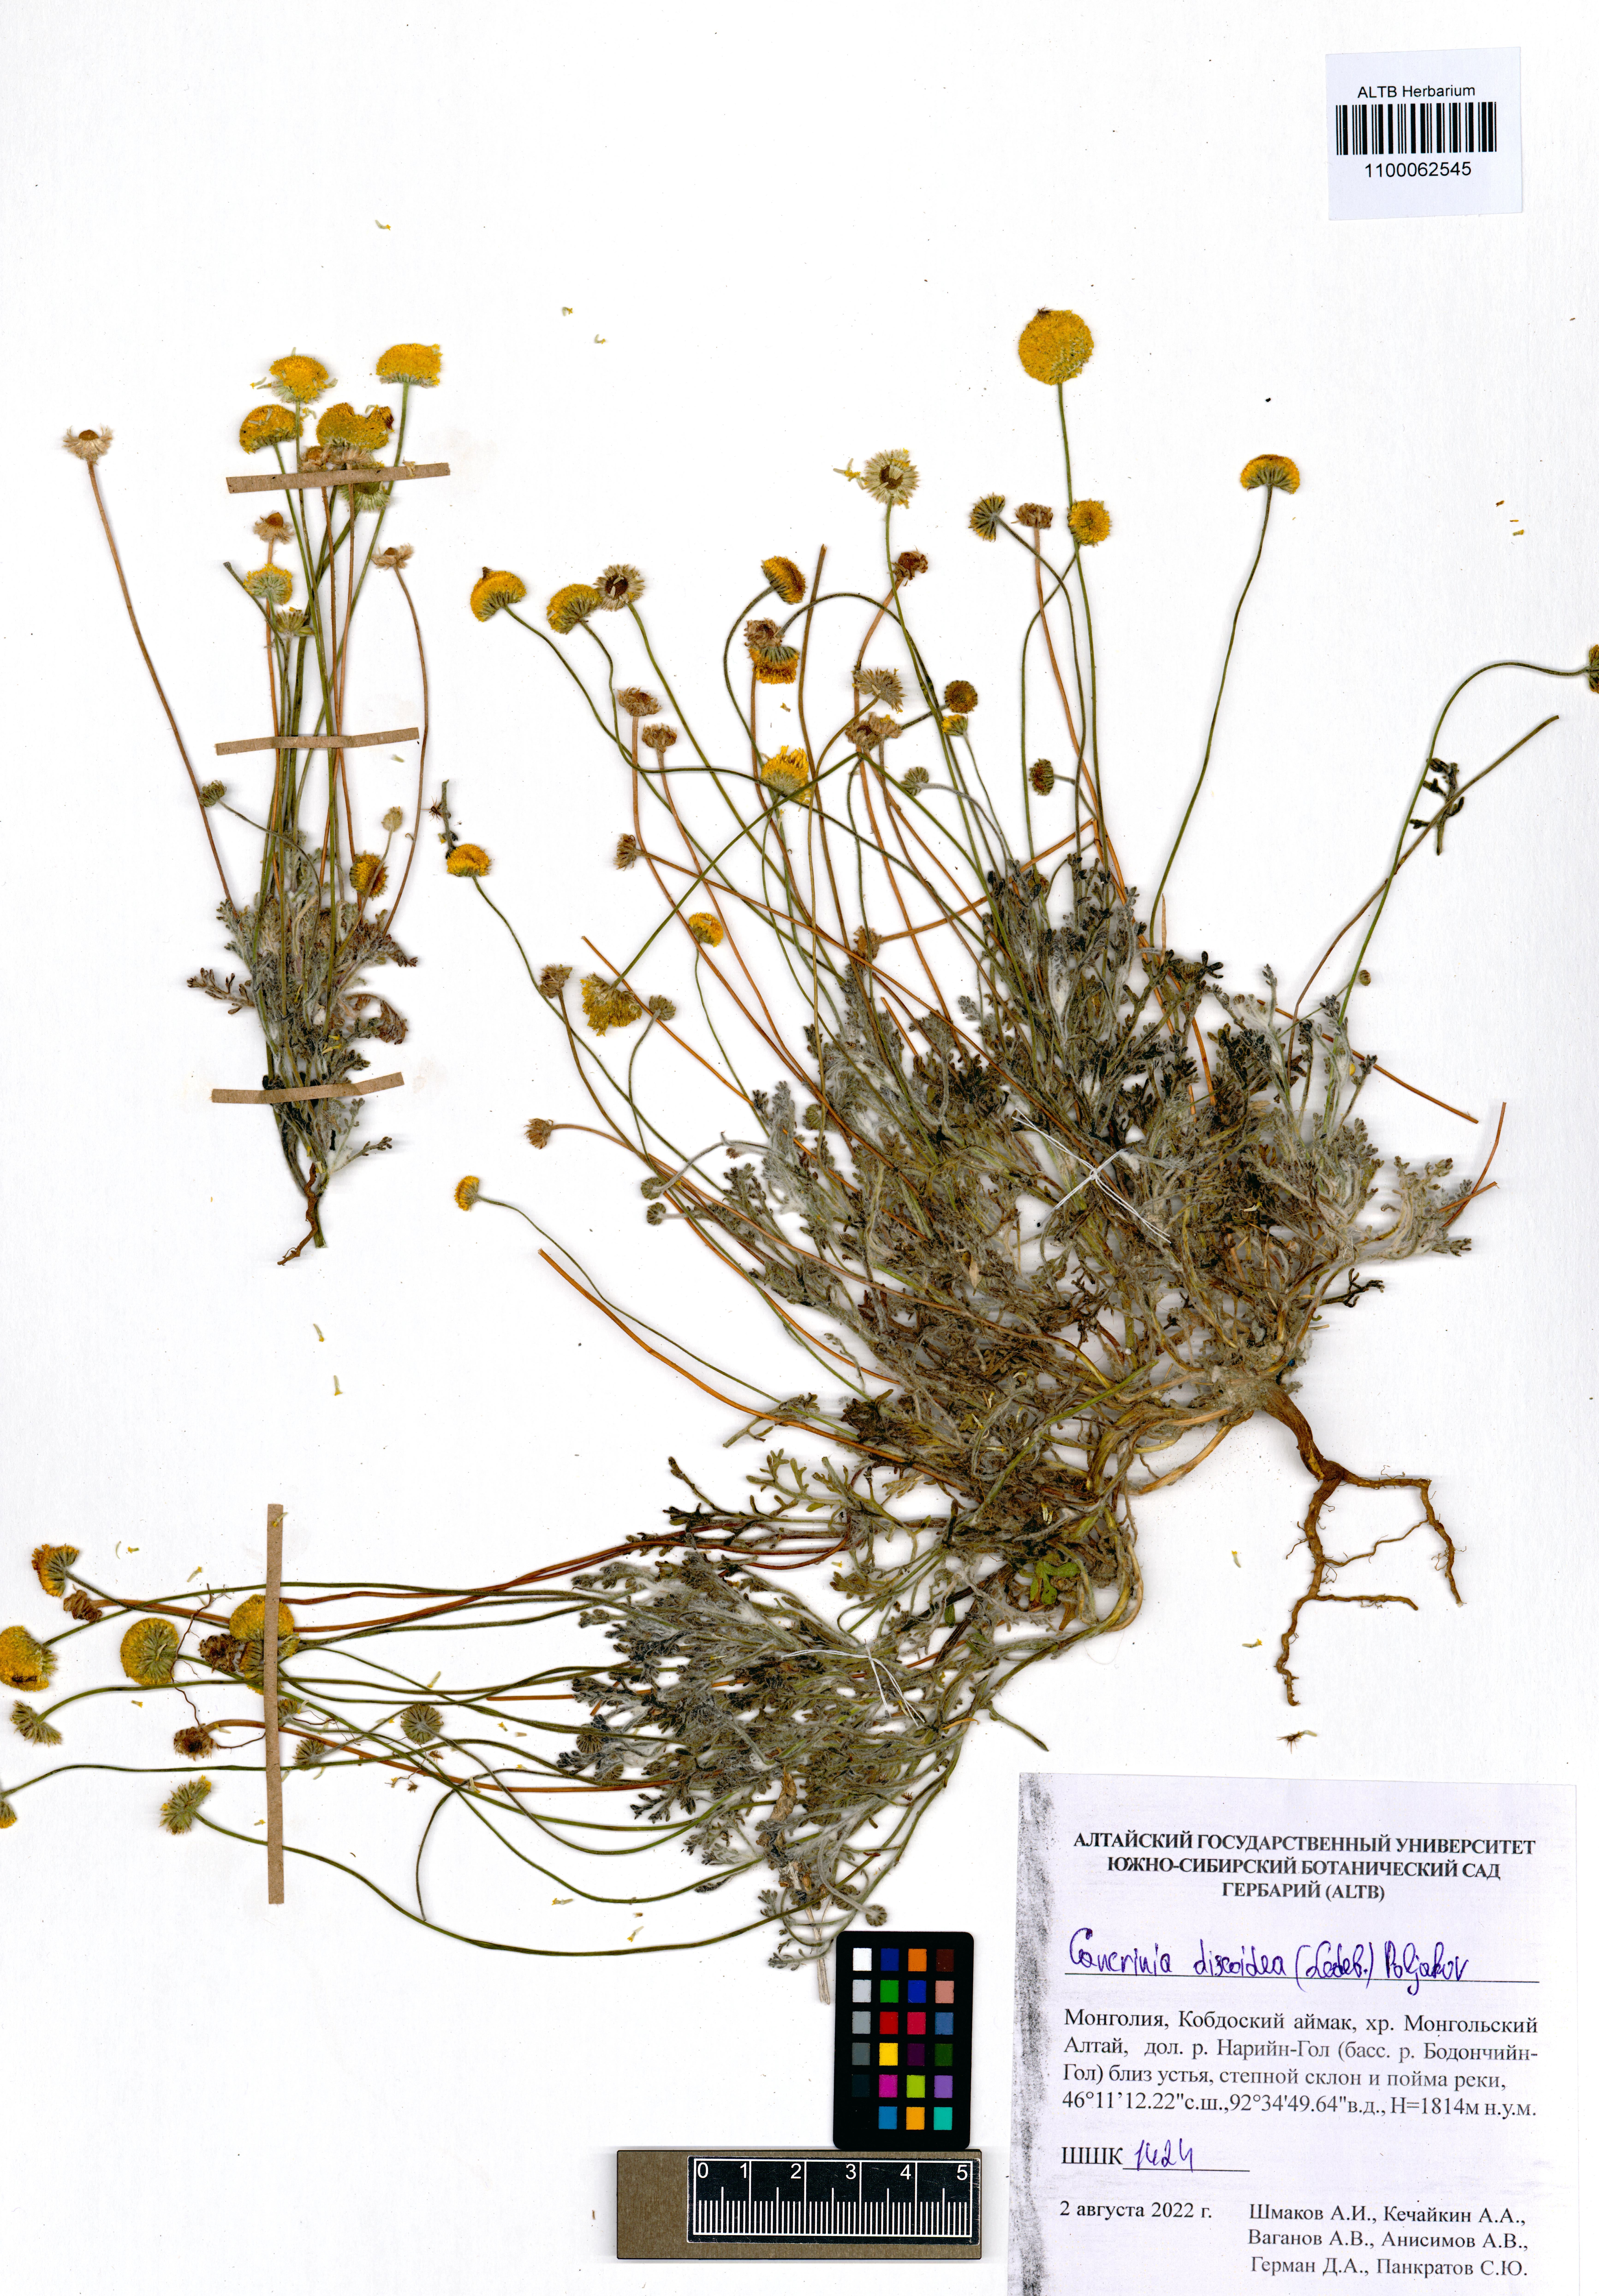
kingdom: Plantae
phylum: Tracheophyta
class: Magnoliopsida
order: Asterales
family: Asteraceae
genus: Cancrinia
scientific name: Cancrinia discoidea
